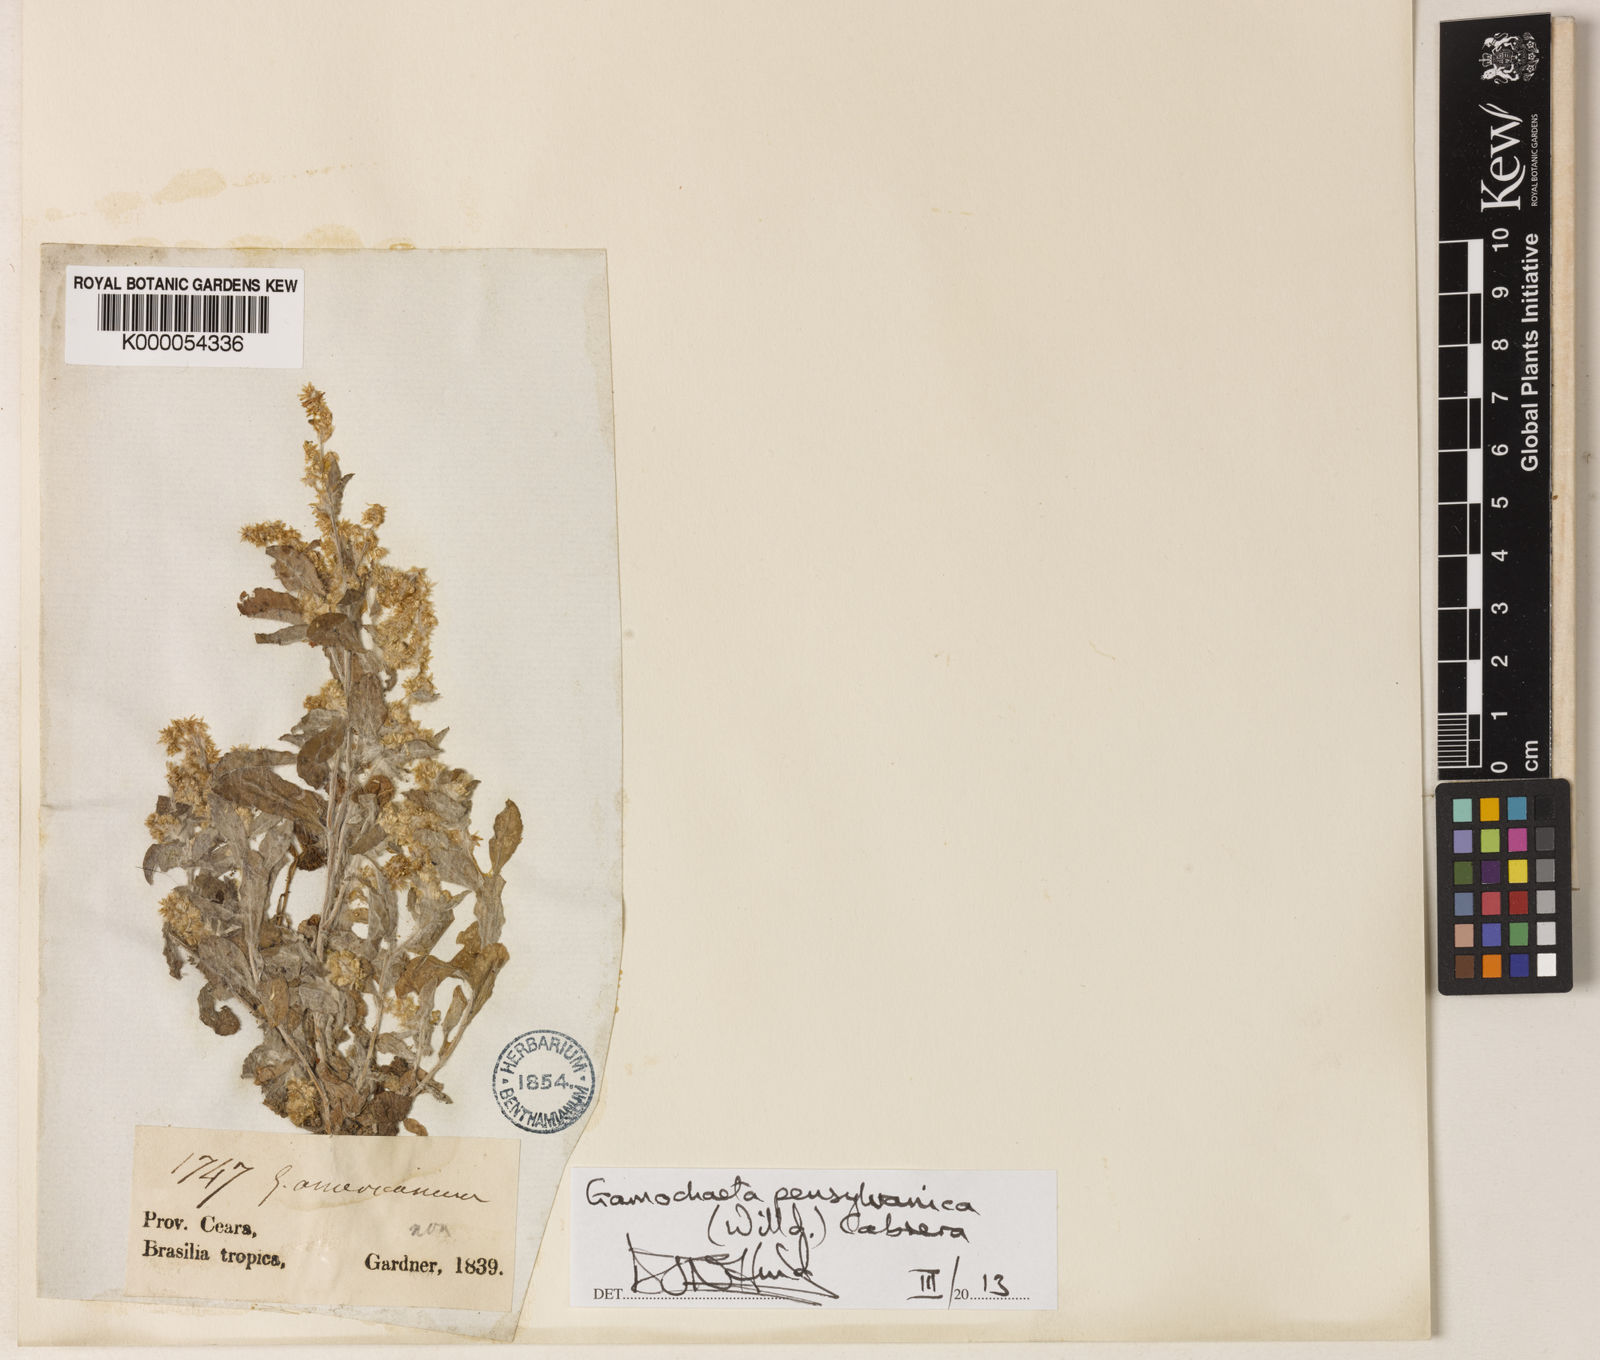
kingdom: Plantae
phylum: Tracheophyta
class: Magnoliopsida
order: Asterales
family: Asteraceae
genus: Gamochaeta
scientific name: Gamochaeta pensylvanica
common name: Pennsylvania everlasting
